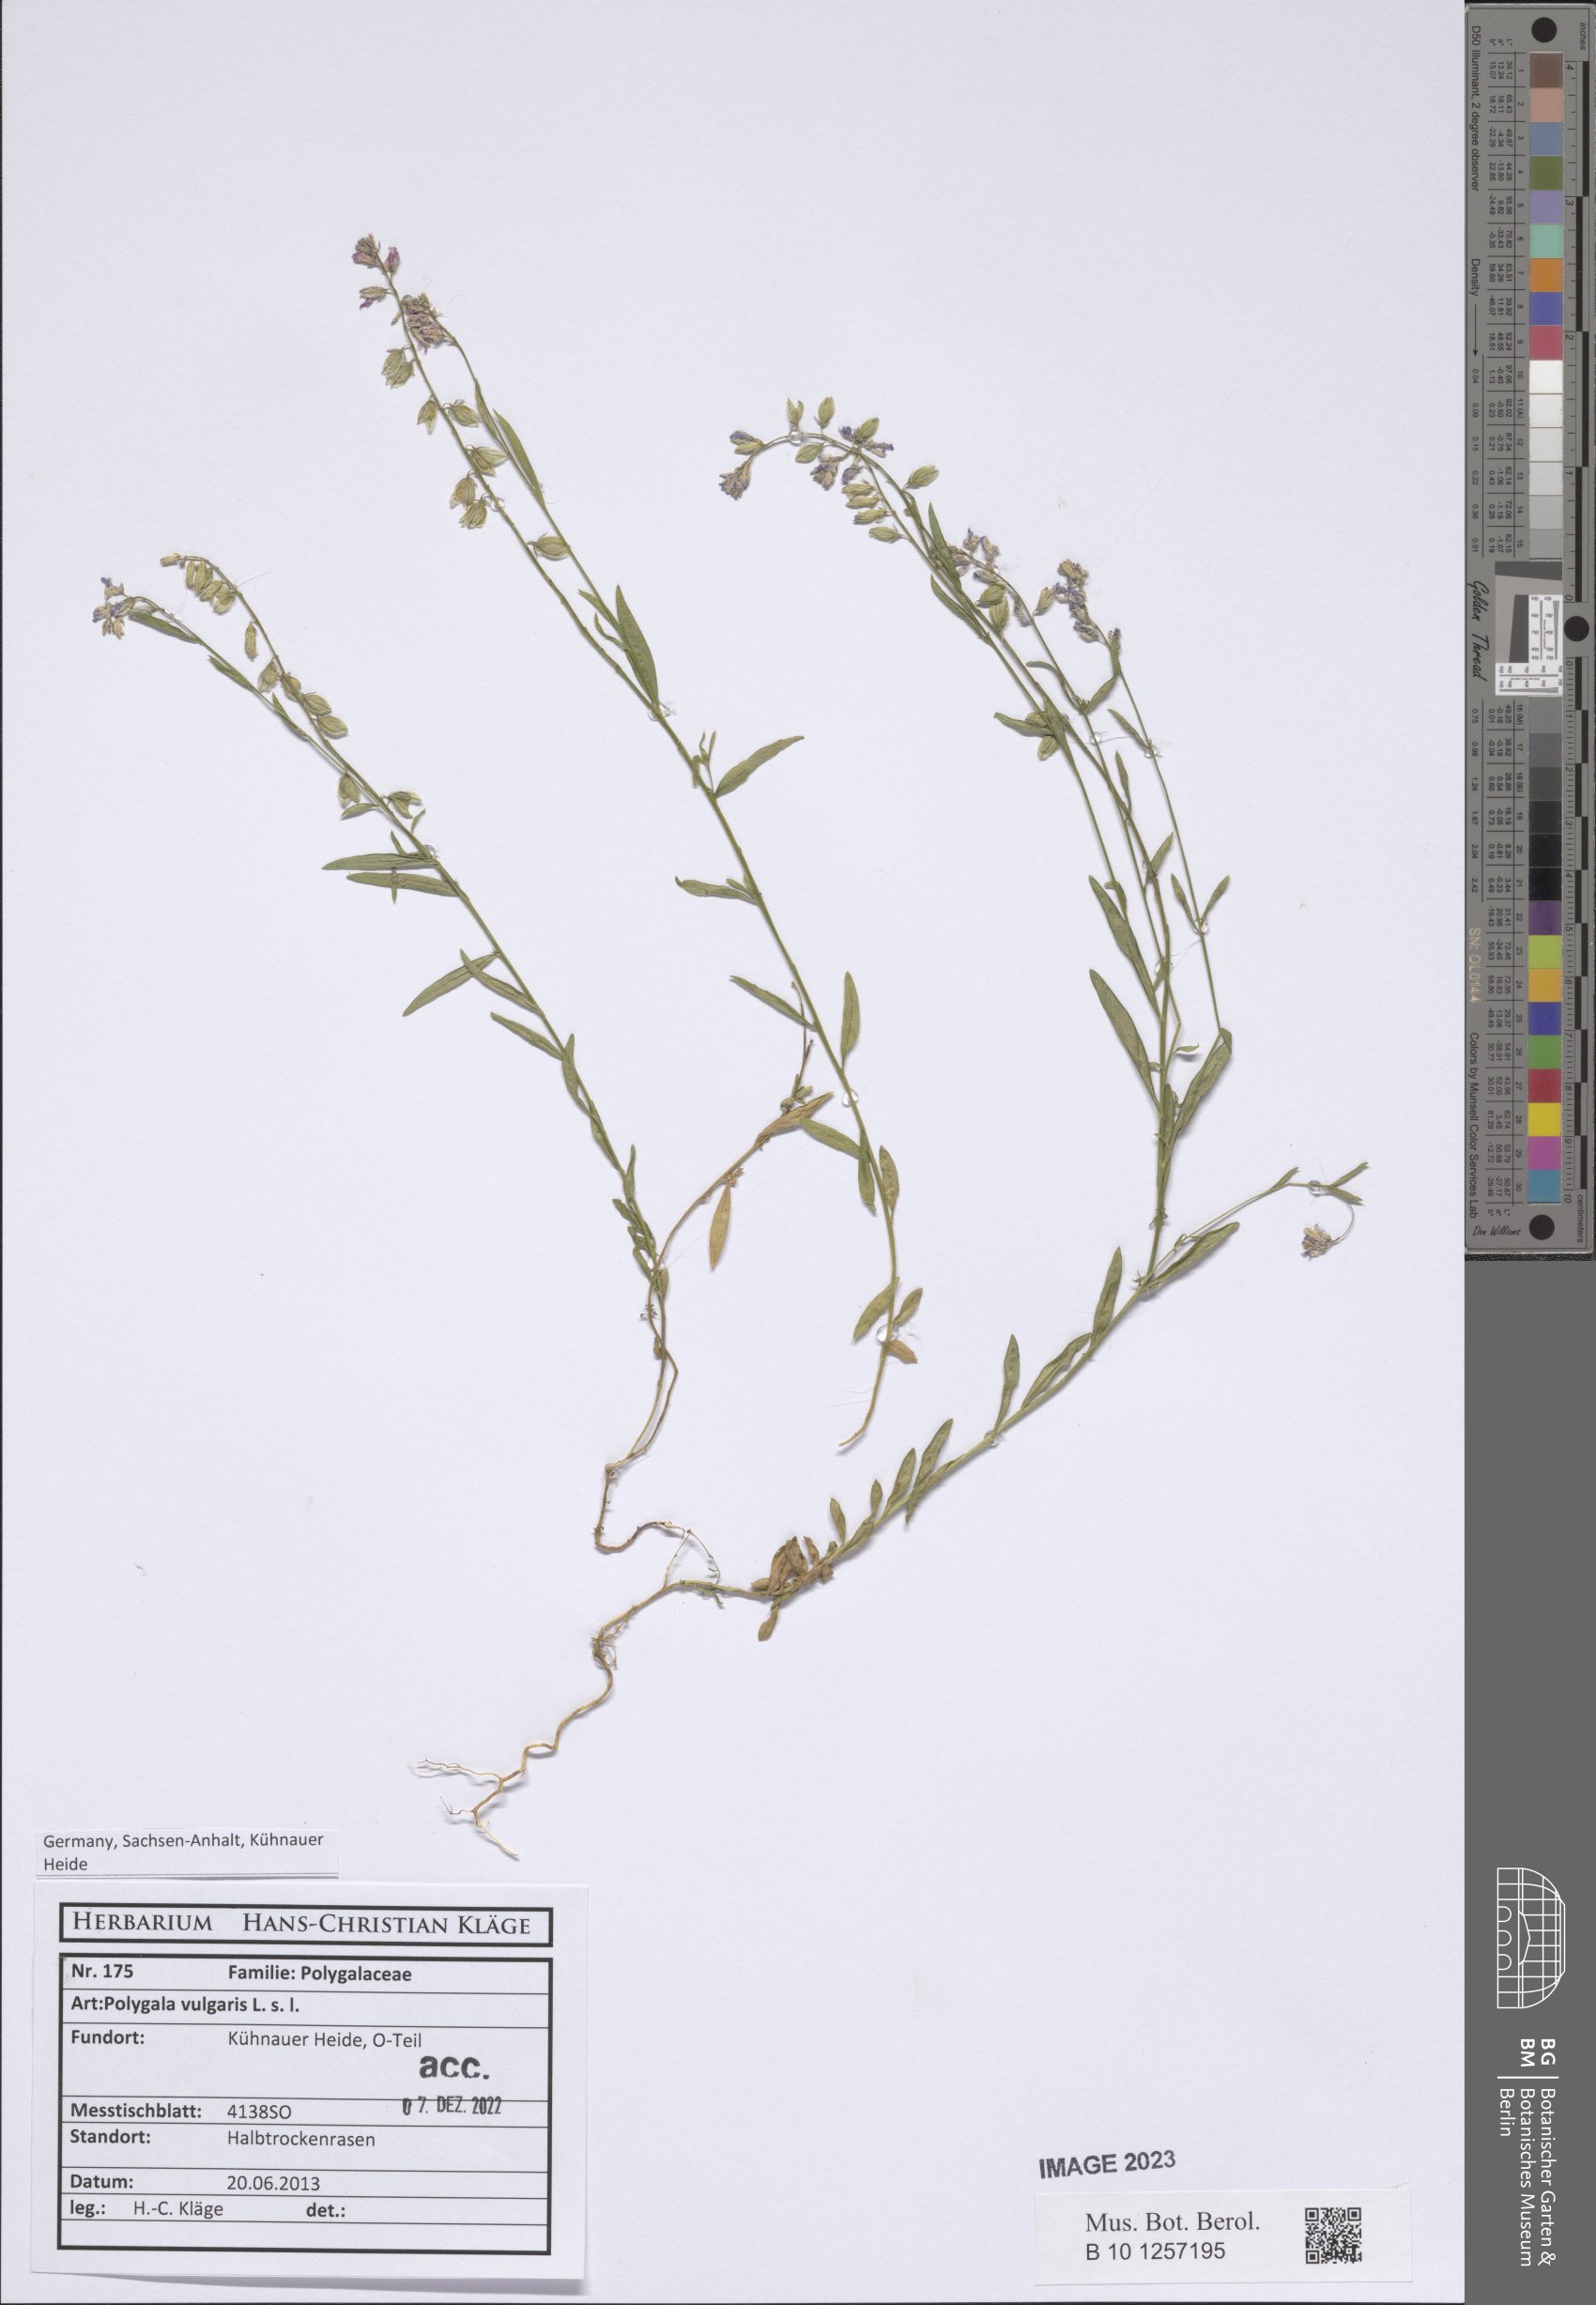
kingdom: Plantae
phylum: Tracheophyta
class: Magnoliopsida
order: Fabales
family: Polygalaceae
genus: Polygala
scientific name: Polygala vulgaris
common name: Common milkwort
